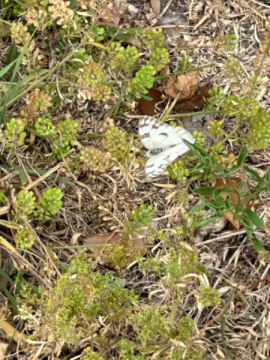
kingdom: Animalia
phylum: Arthropoda
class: Insecta
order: Lepidoptera
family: Pieridae
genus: Pontia
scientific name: Pontia occidentalis
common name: Western White
